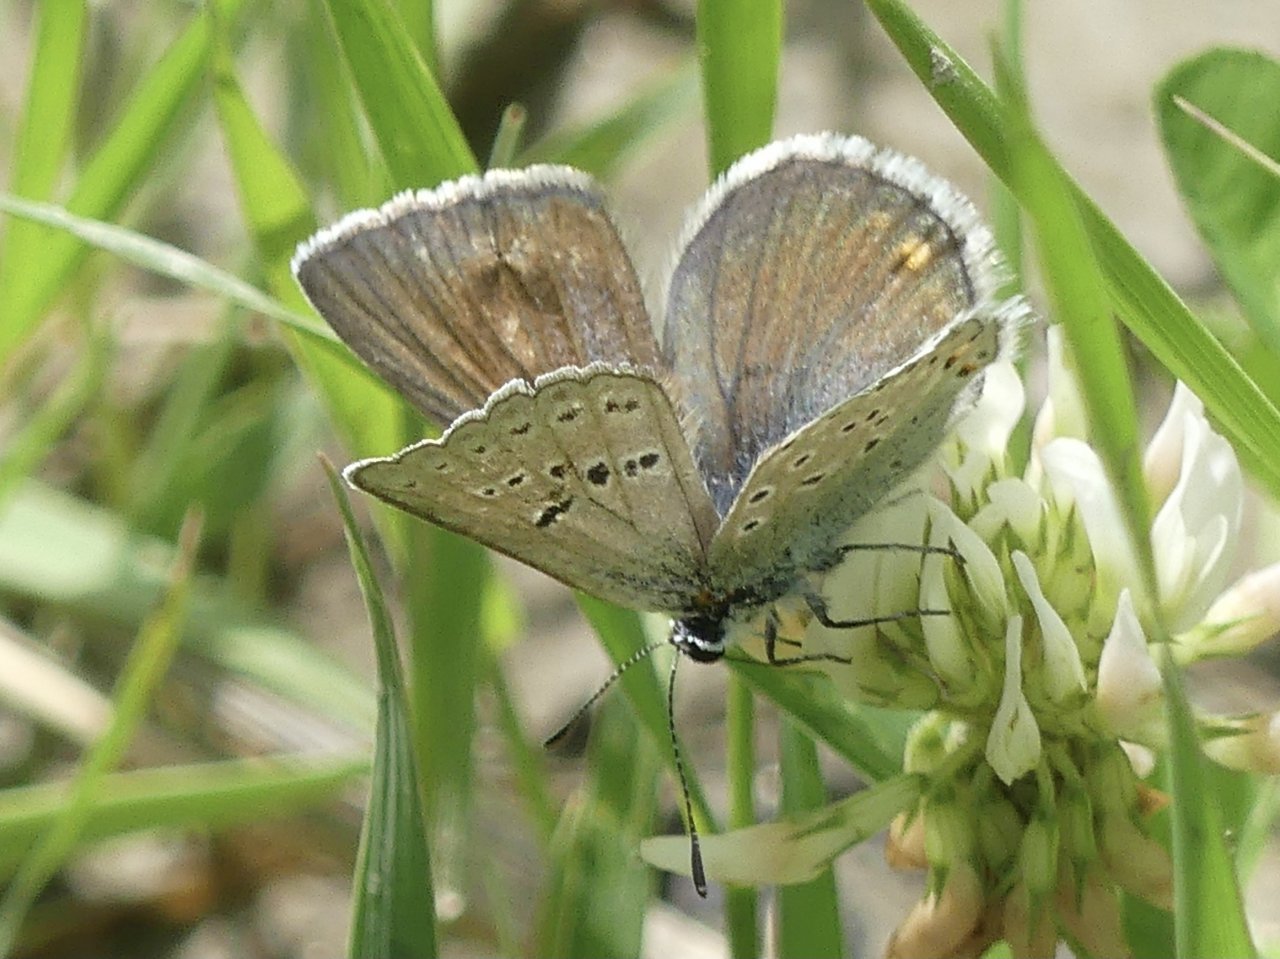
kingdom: Animalia
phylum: Arthropoda
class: Insecta
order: Lepidoptera
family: Lycaenidae
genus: Plebejus
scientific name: Plebejus saepiolus
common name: Greenish Blue
